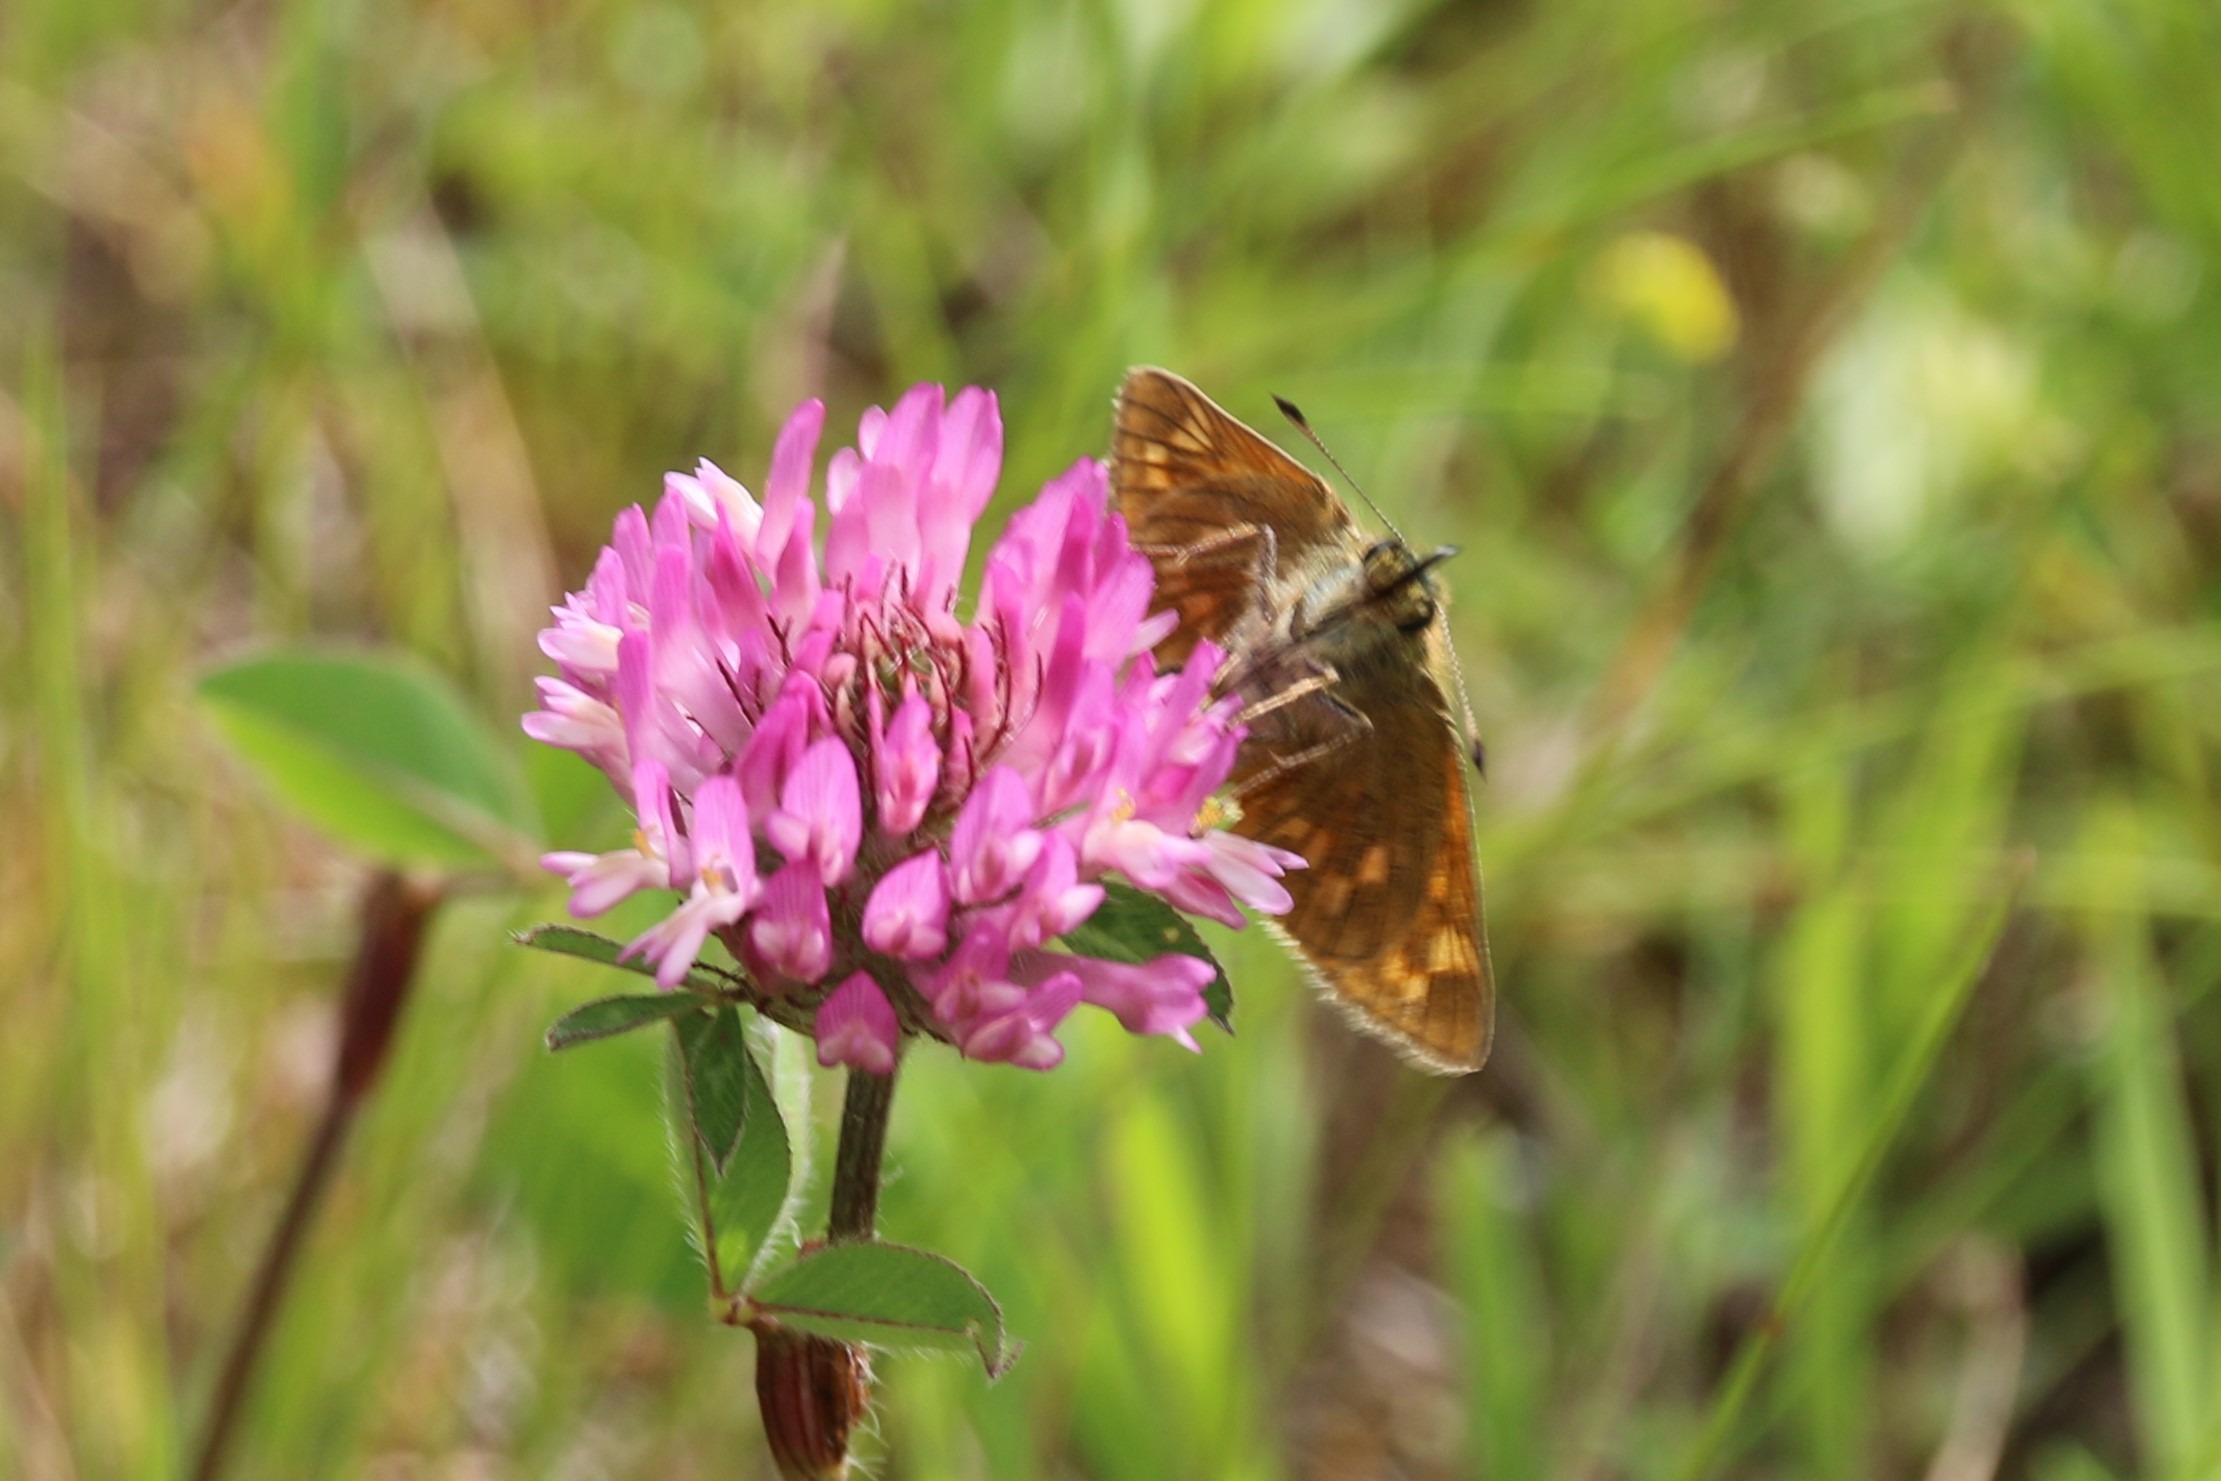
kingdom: Animalia
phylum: Arthropoda
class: Insecta
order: Lepidoptera
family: Hesperiidae
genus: Ochlodes
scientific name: Ochlodes venata
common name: Stor bredpande
